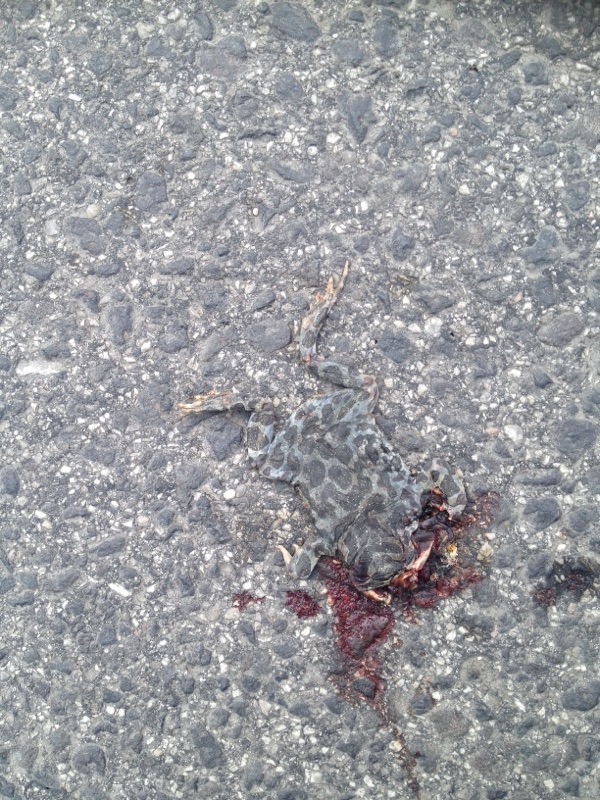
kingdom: Animalia
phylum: Chordata
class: Amphibia
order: Anura
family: Bufonidae
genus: Bufotes
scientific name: Bufotes viridis
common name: European green toad
